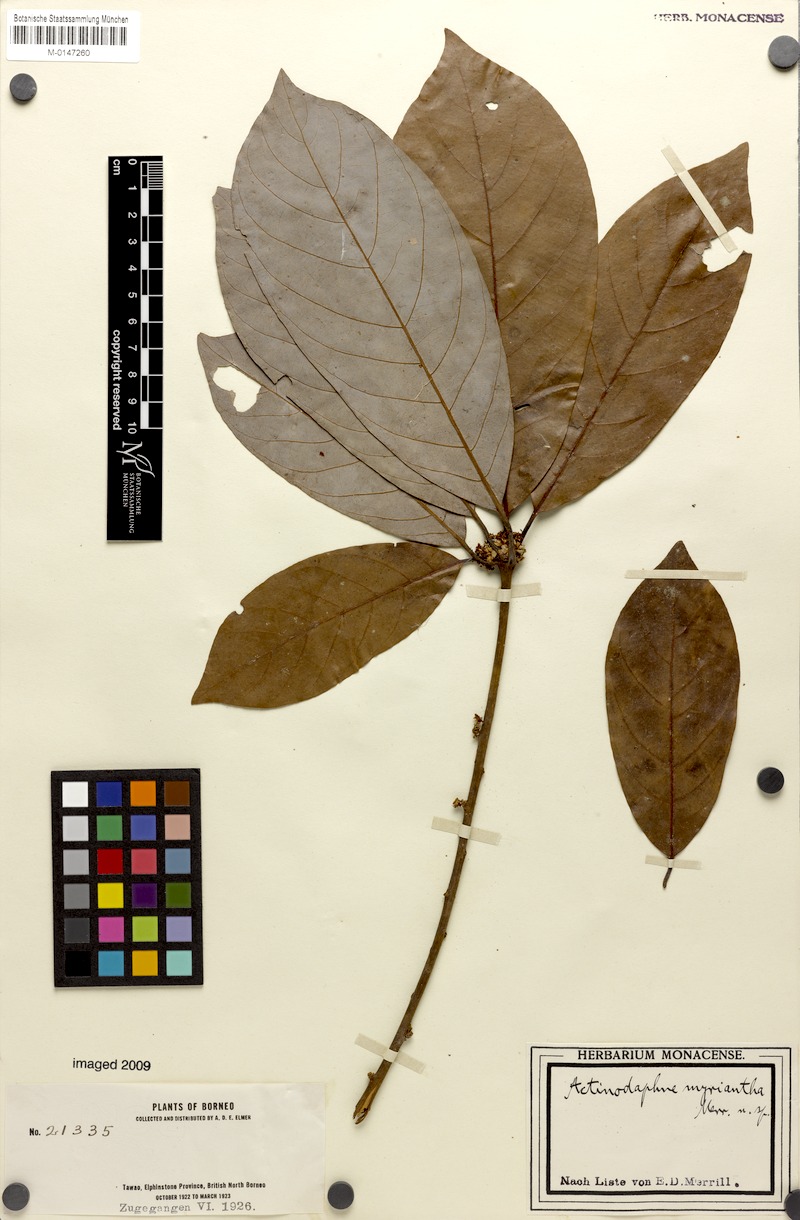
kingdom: Plantae
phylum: Tracheophyta
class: Magnoliopsida
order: Laurales
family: Lauraceae
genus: Actinodaphne
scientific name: Actinodaphne myriantha
